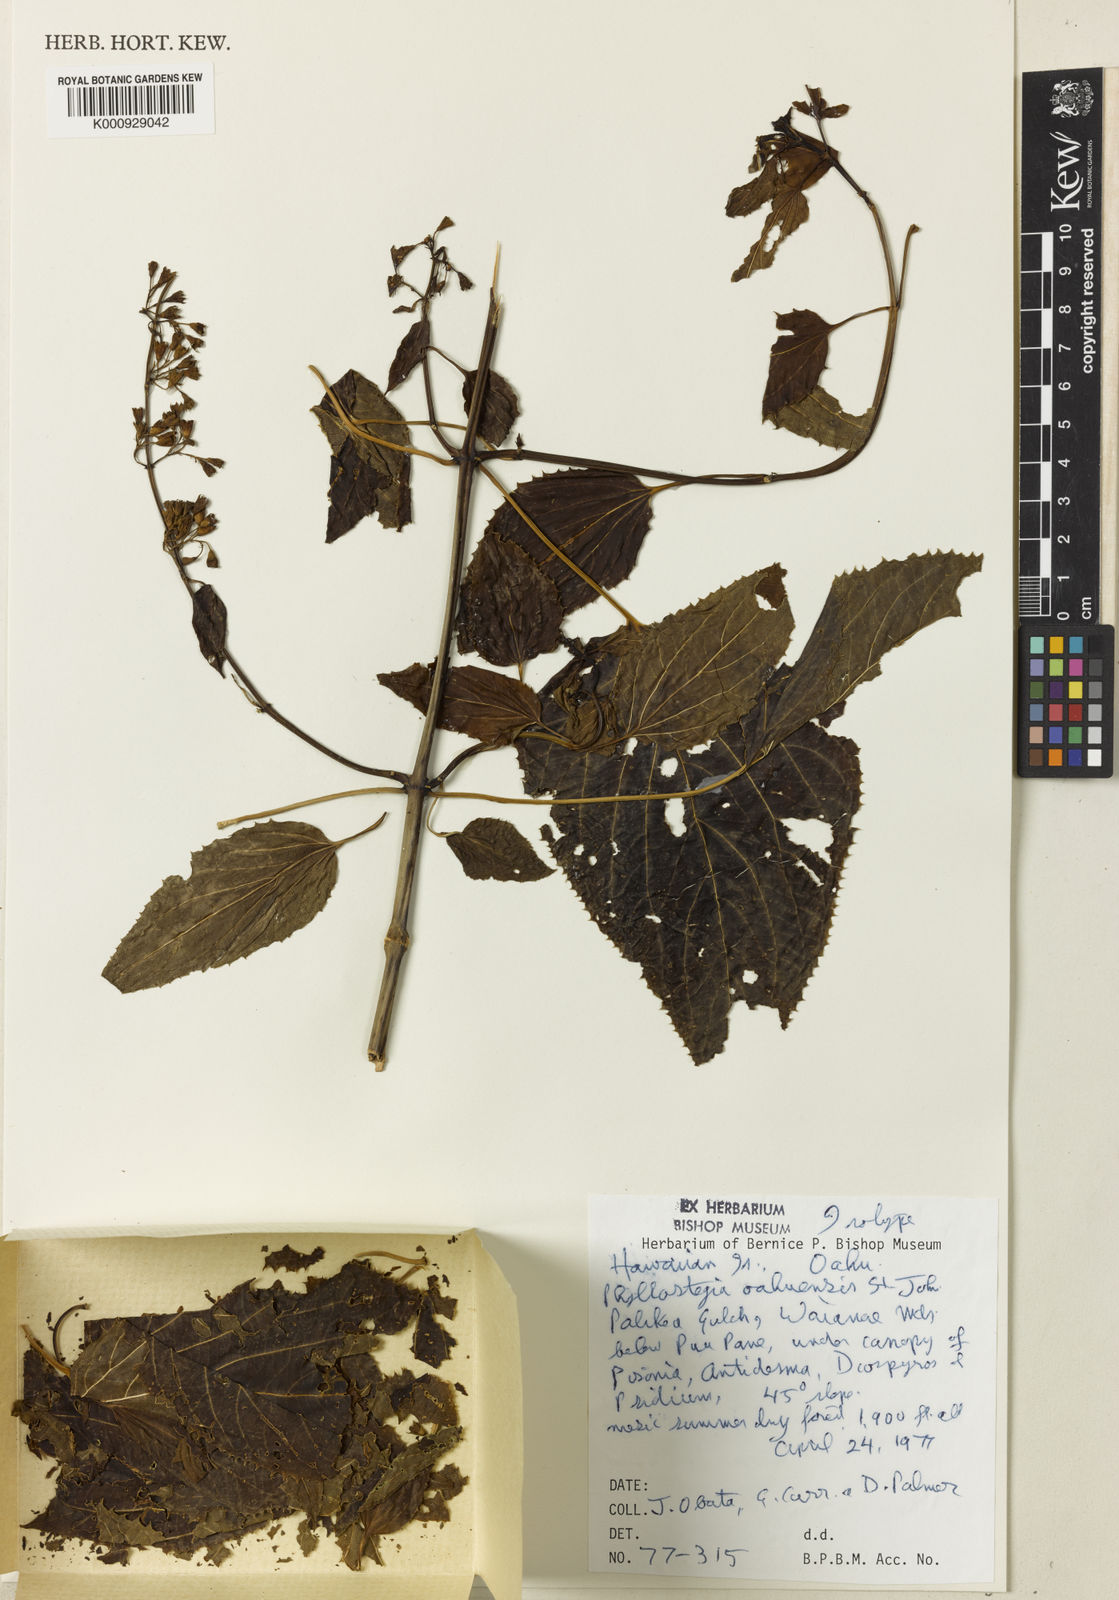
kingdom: Plantae
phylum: Tracheophyta
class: Magnoliopsida
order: Lamiales
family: Lamiaceae
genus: Phyllostegia
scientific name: Phyllostegia lantanoides
